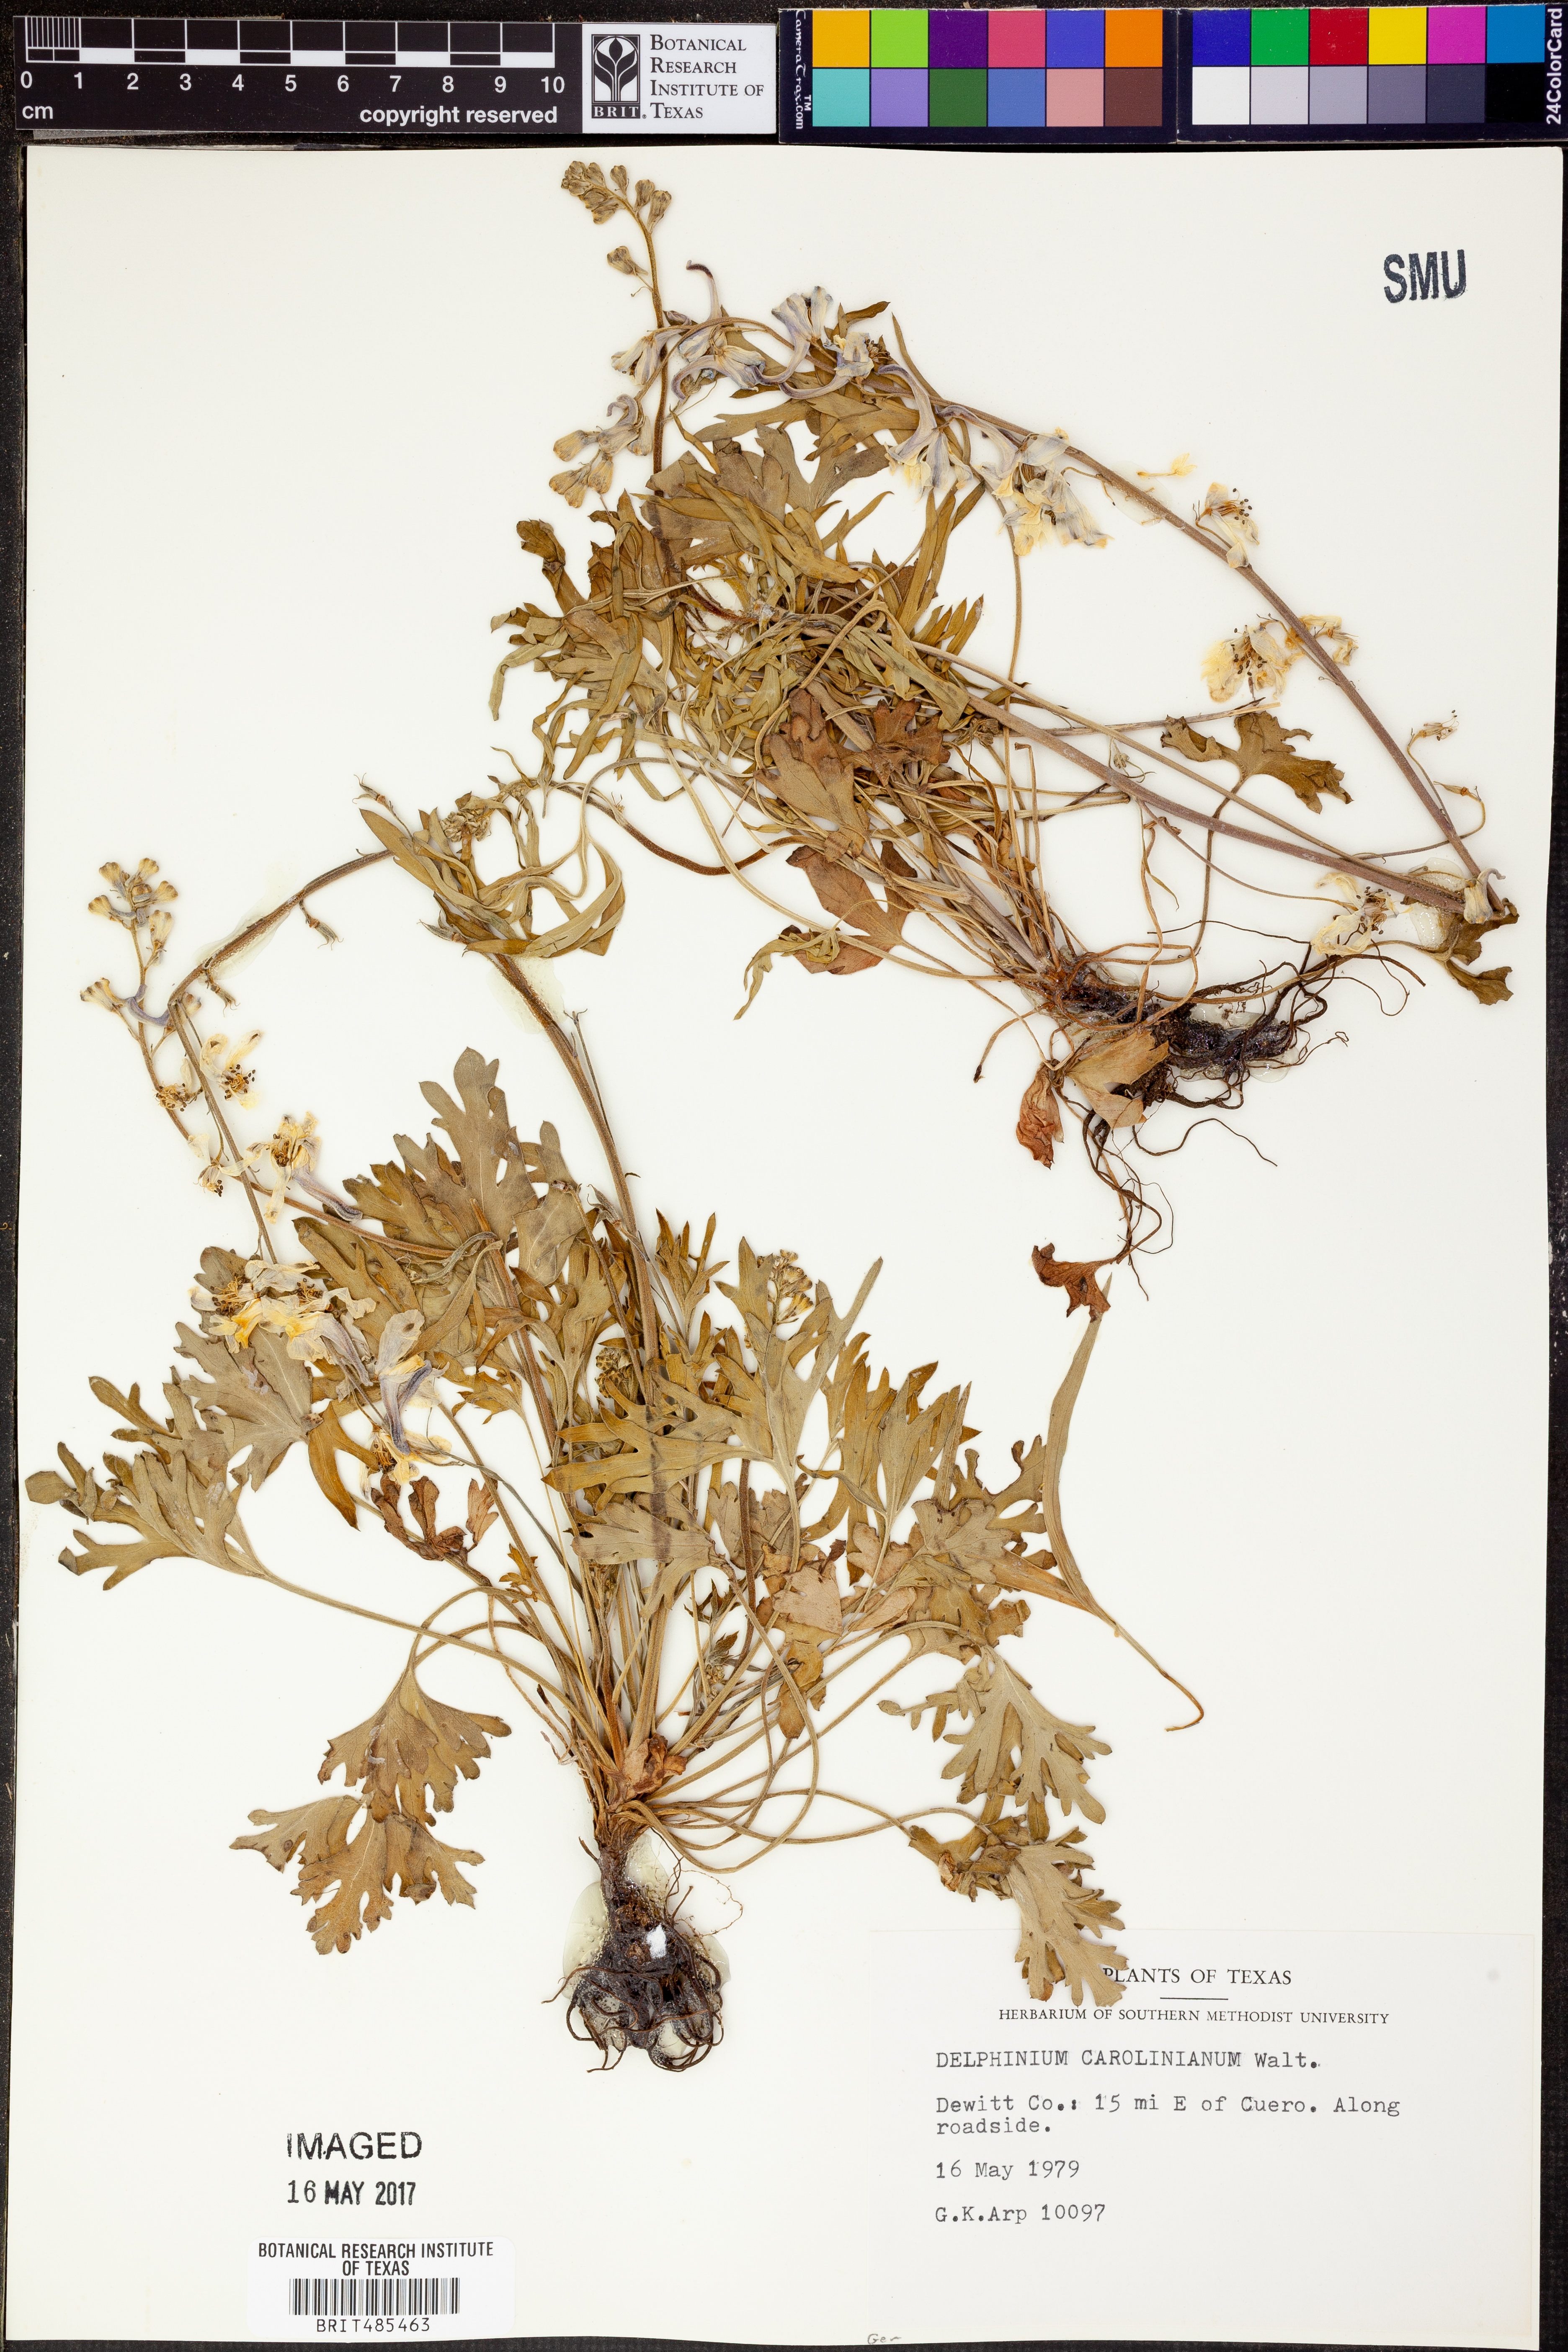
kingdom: Plantae
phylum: Tracheophyta
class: Magnoliopsida
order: Ranunculales
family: Ranunculaceae
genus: Delphinium
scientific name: Delphinium carolinianum
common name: Carolina larkspur
